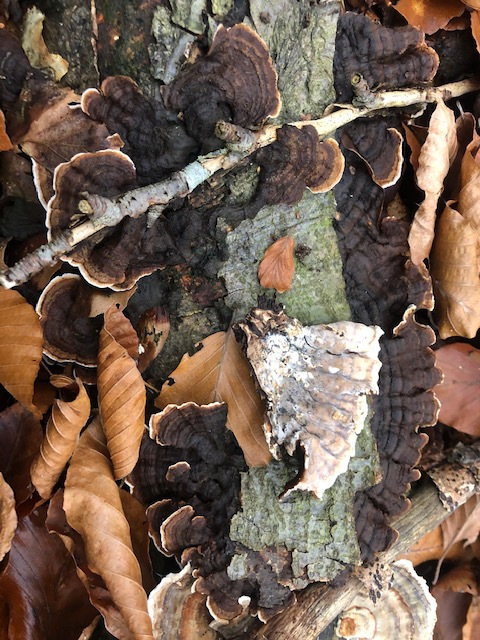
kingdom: Fungi
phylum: Basidiomycota
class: Agaricomycetes
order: Russulales
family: Hericiaceae
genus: Laxitextum
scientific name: Laxitextum bicolor
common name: tvefarvet filtskind
